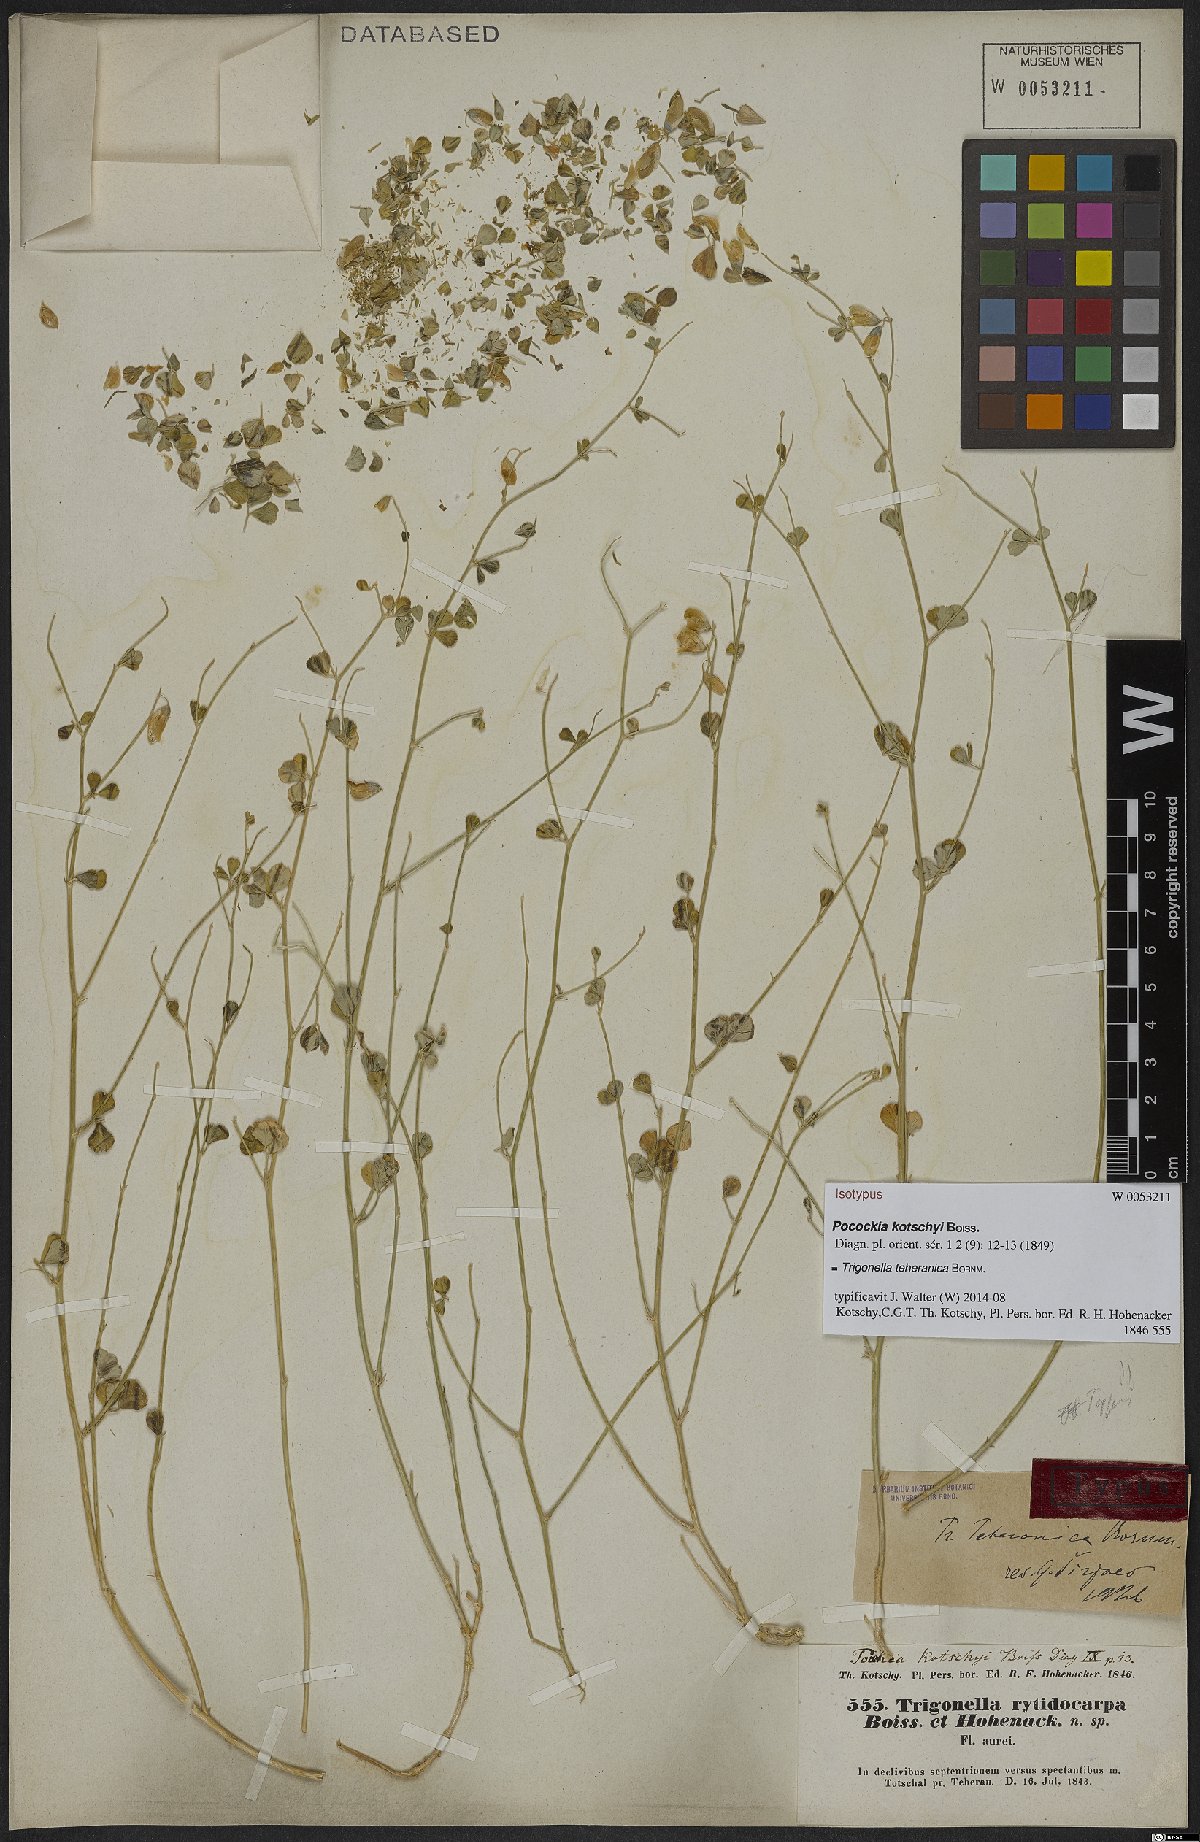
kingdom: Plantae
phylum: Tracheophyta
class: Magnoliopsida
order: Fabales
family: Fabaceae
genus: Trigonella
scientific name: Trigonella teheranica
